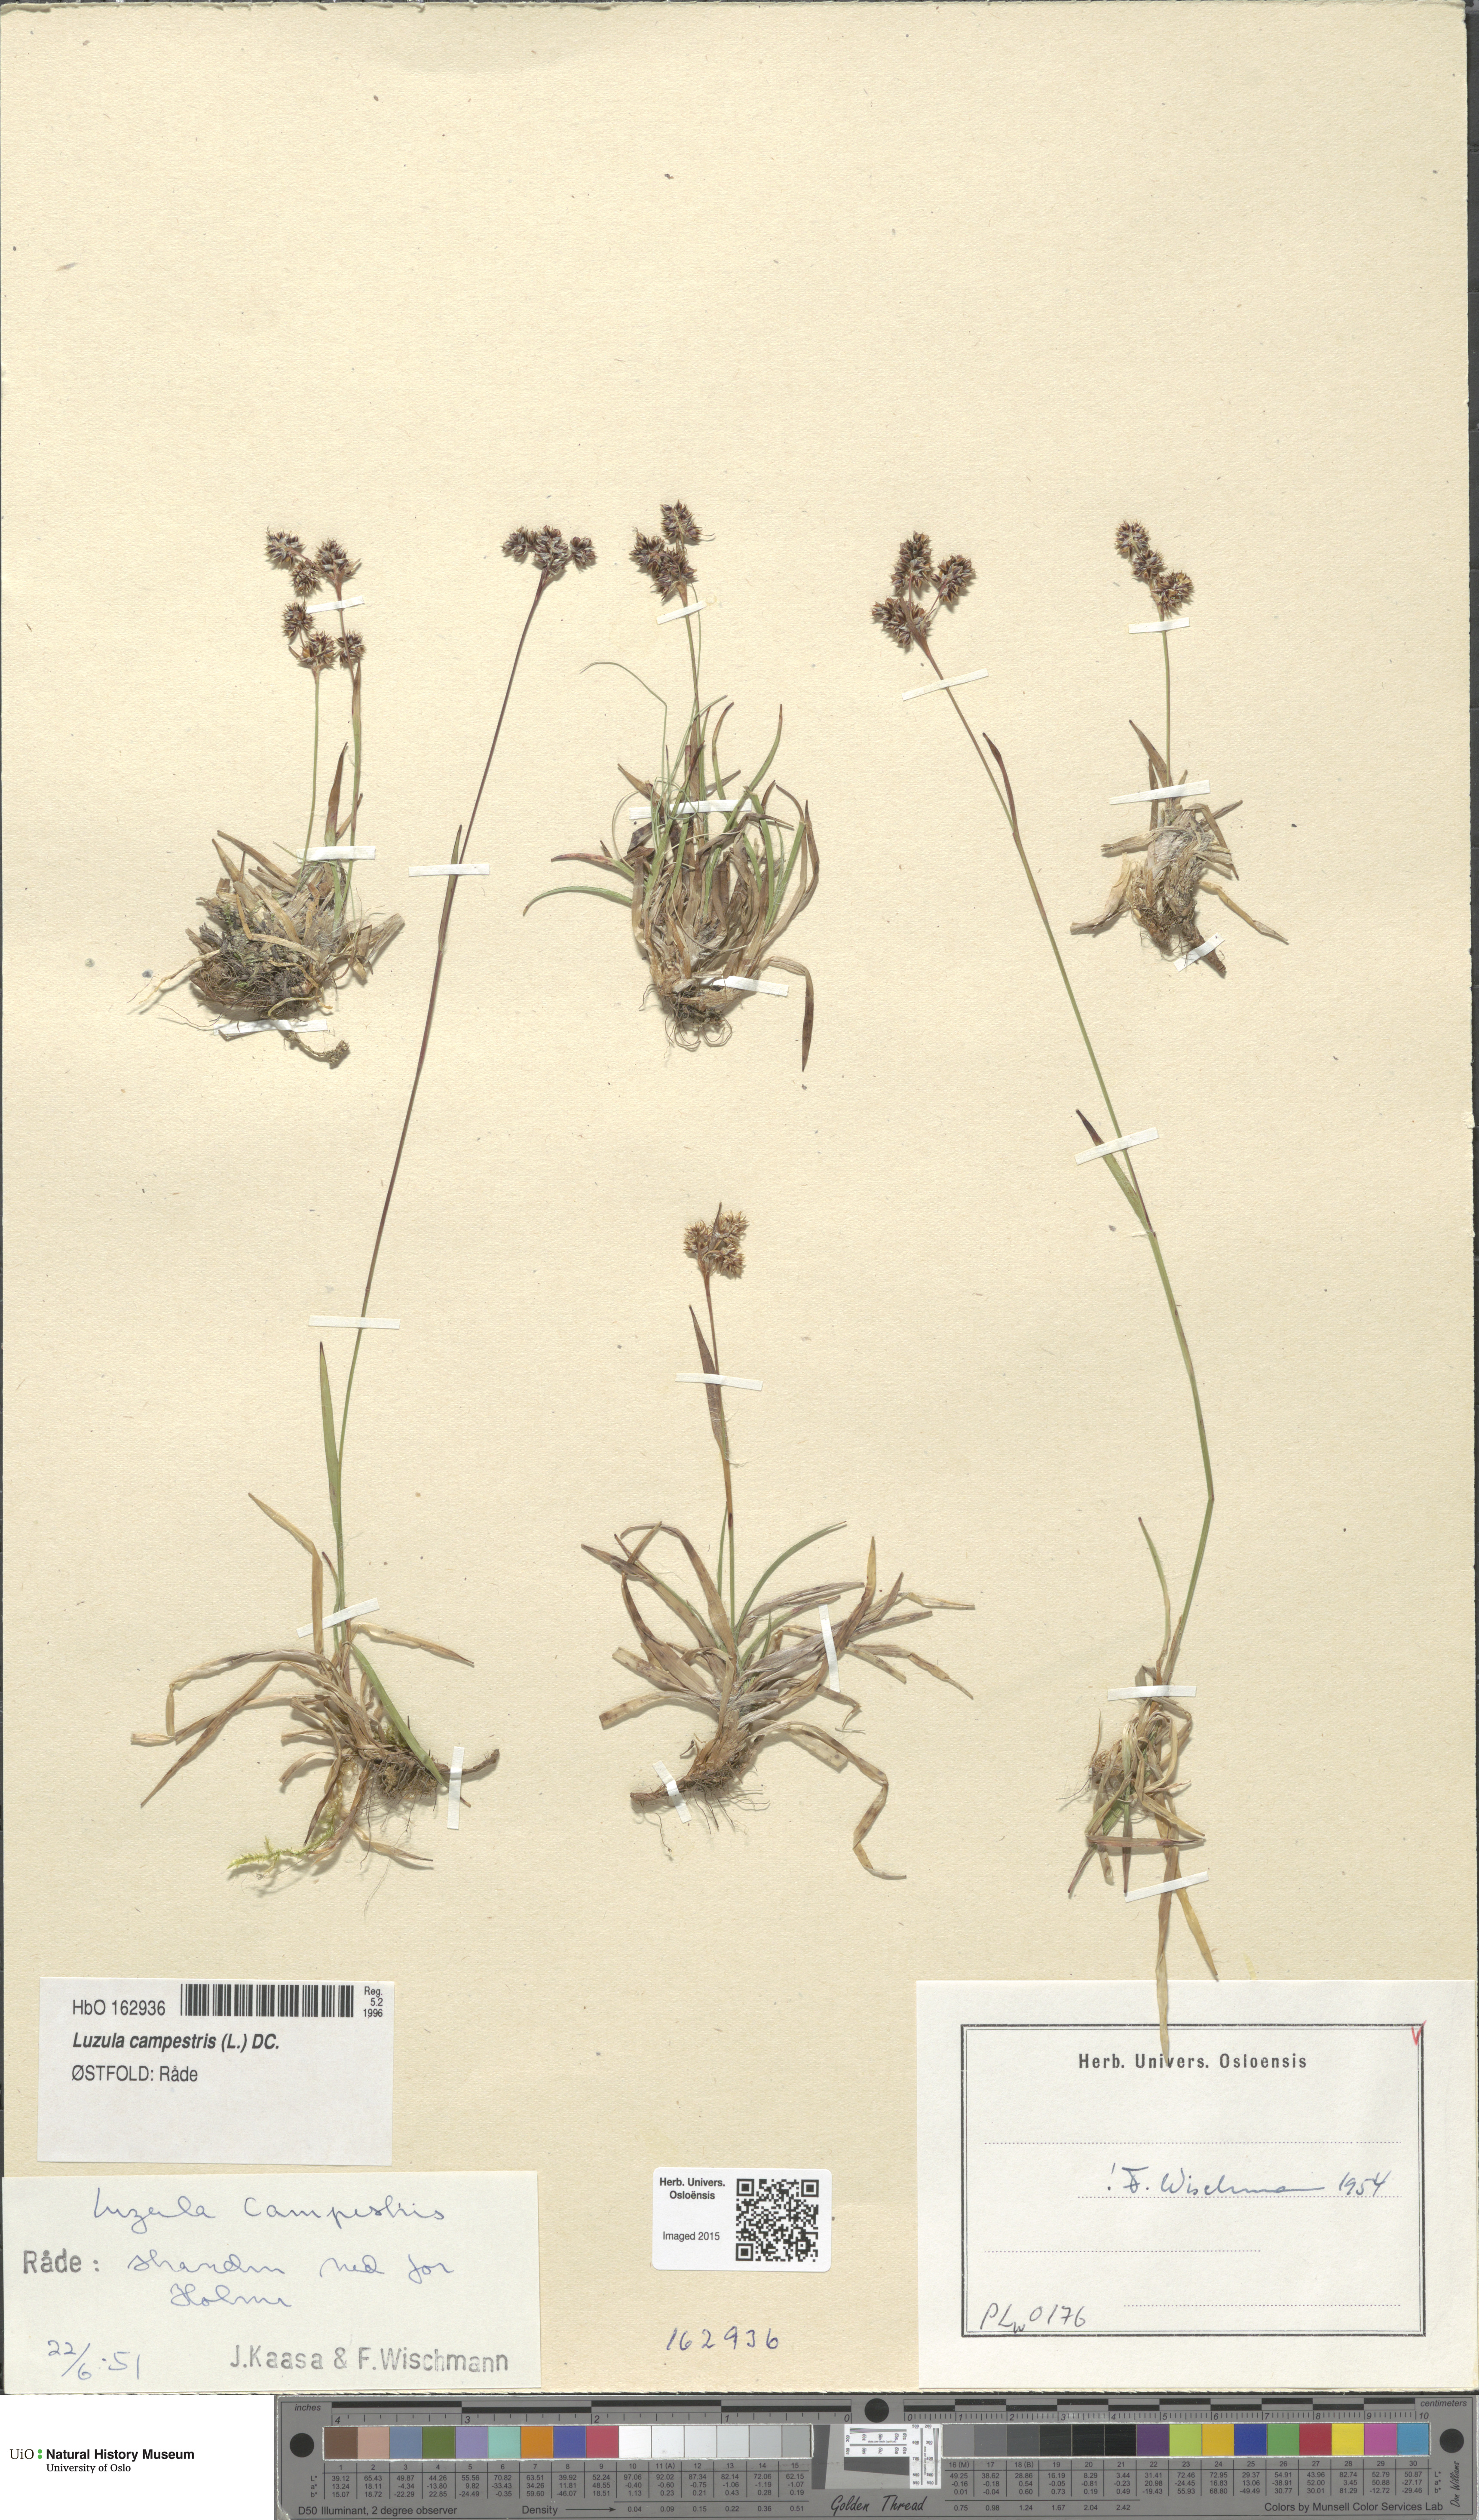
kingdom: Plantae
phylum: Tracheophyta
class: Liliopsida
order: Poales
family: Juncaceae
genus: Luzula
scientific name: Luzula campestris
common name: Field wood-rush
